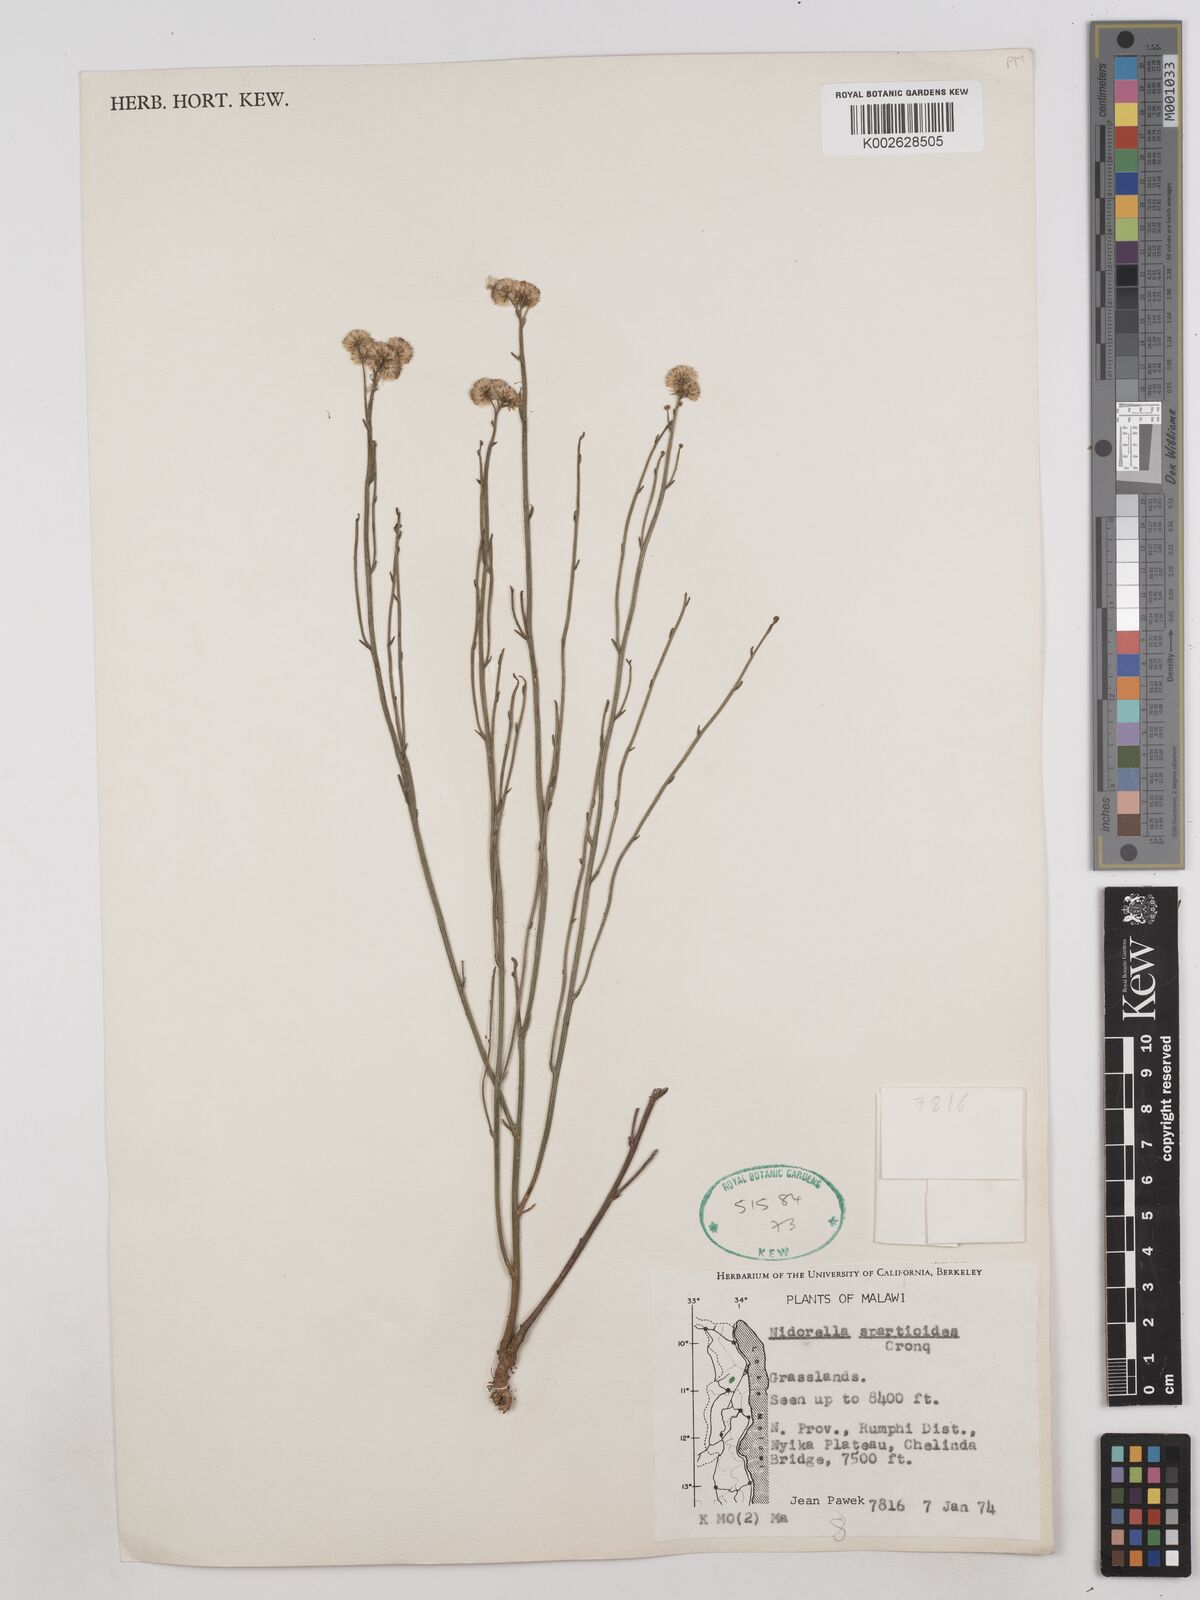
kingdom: Plantae
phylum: Tracheophyta
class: Magnoliopsida
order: Asterales
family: Asteraceae
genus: Nidorella
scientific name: Nidorella spartioides
